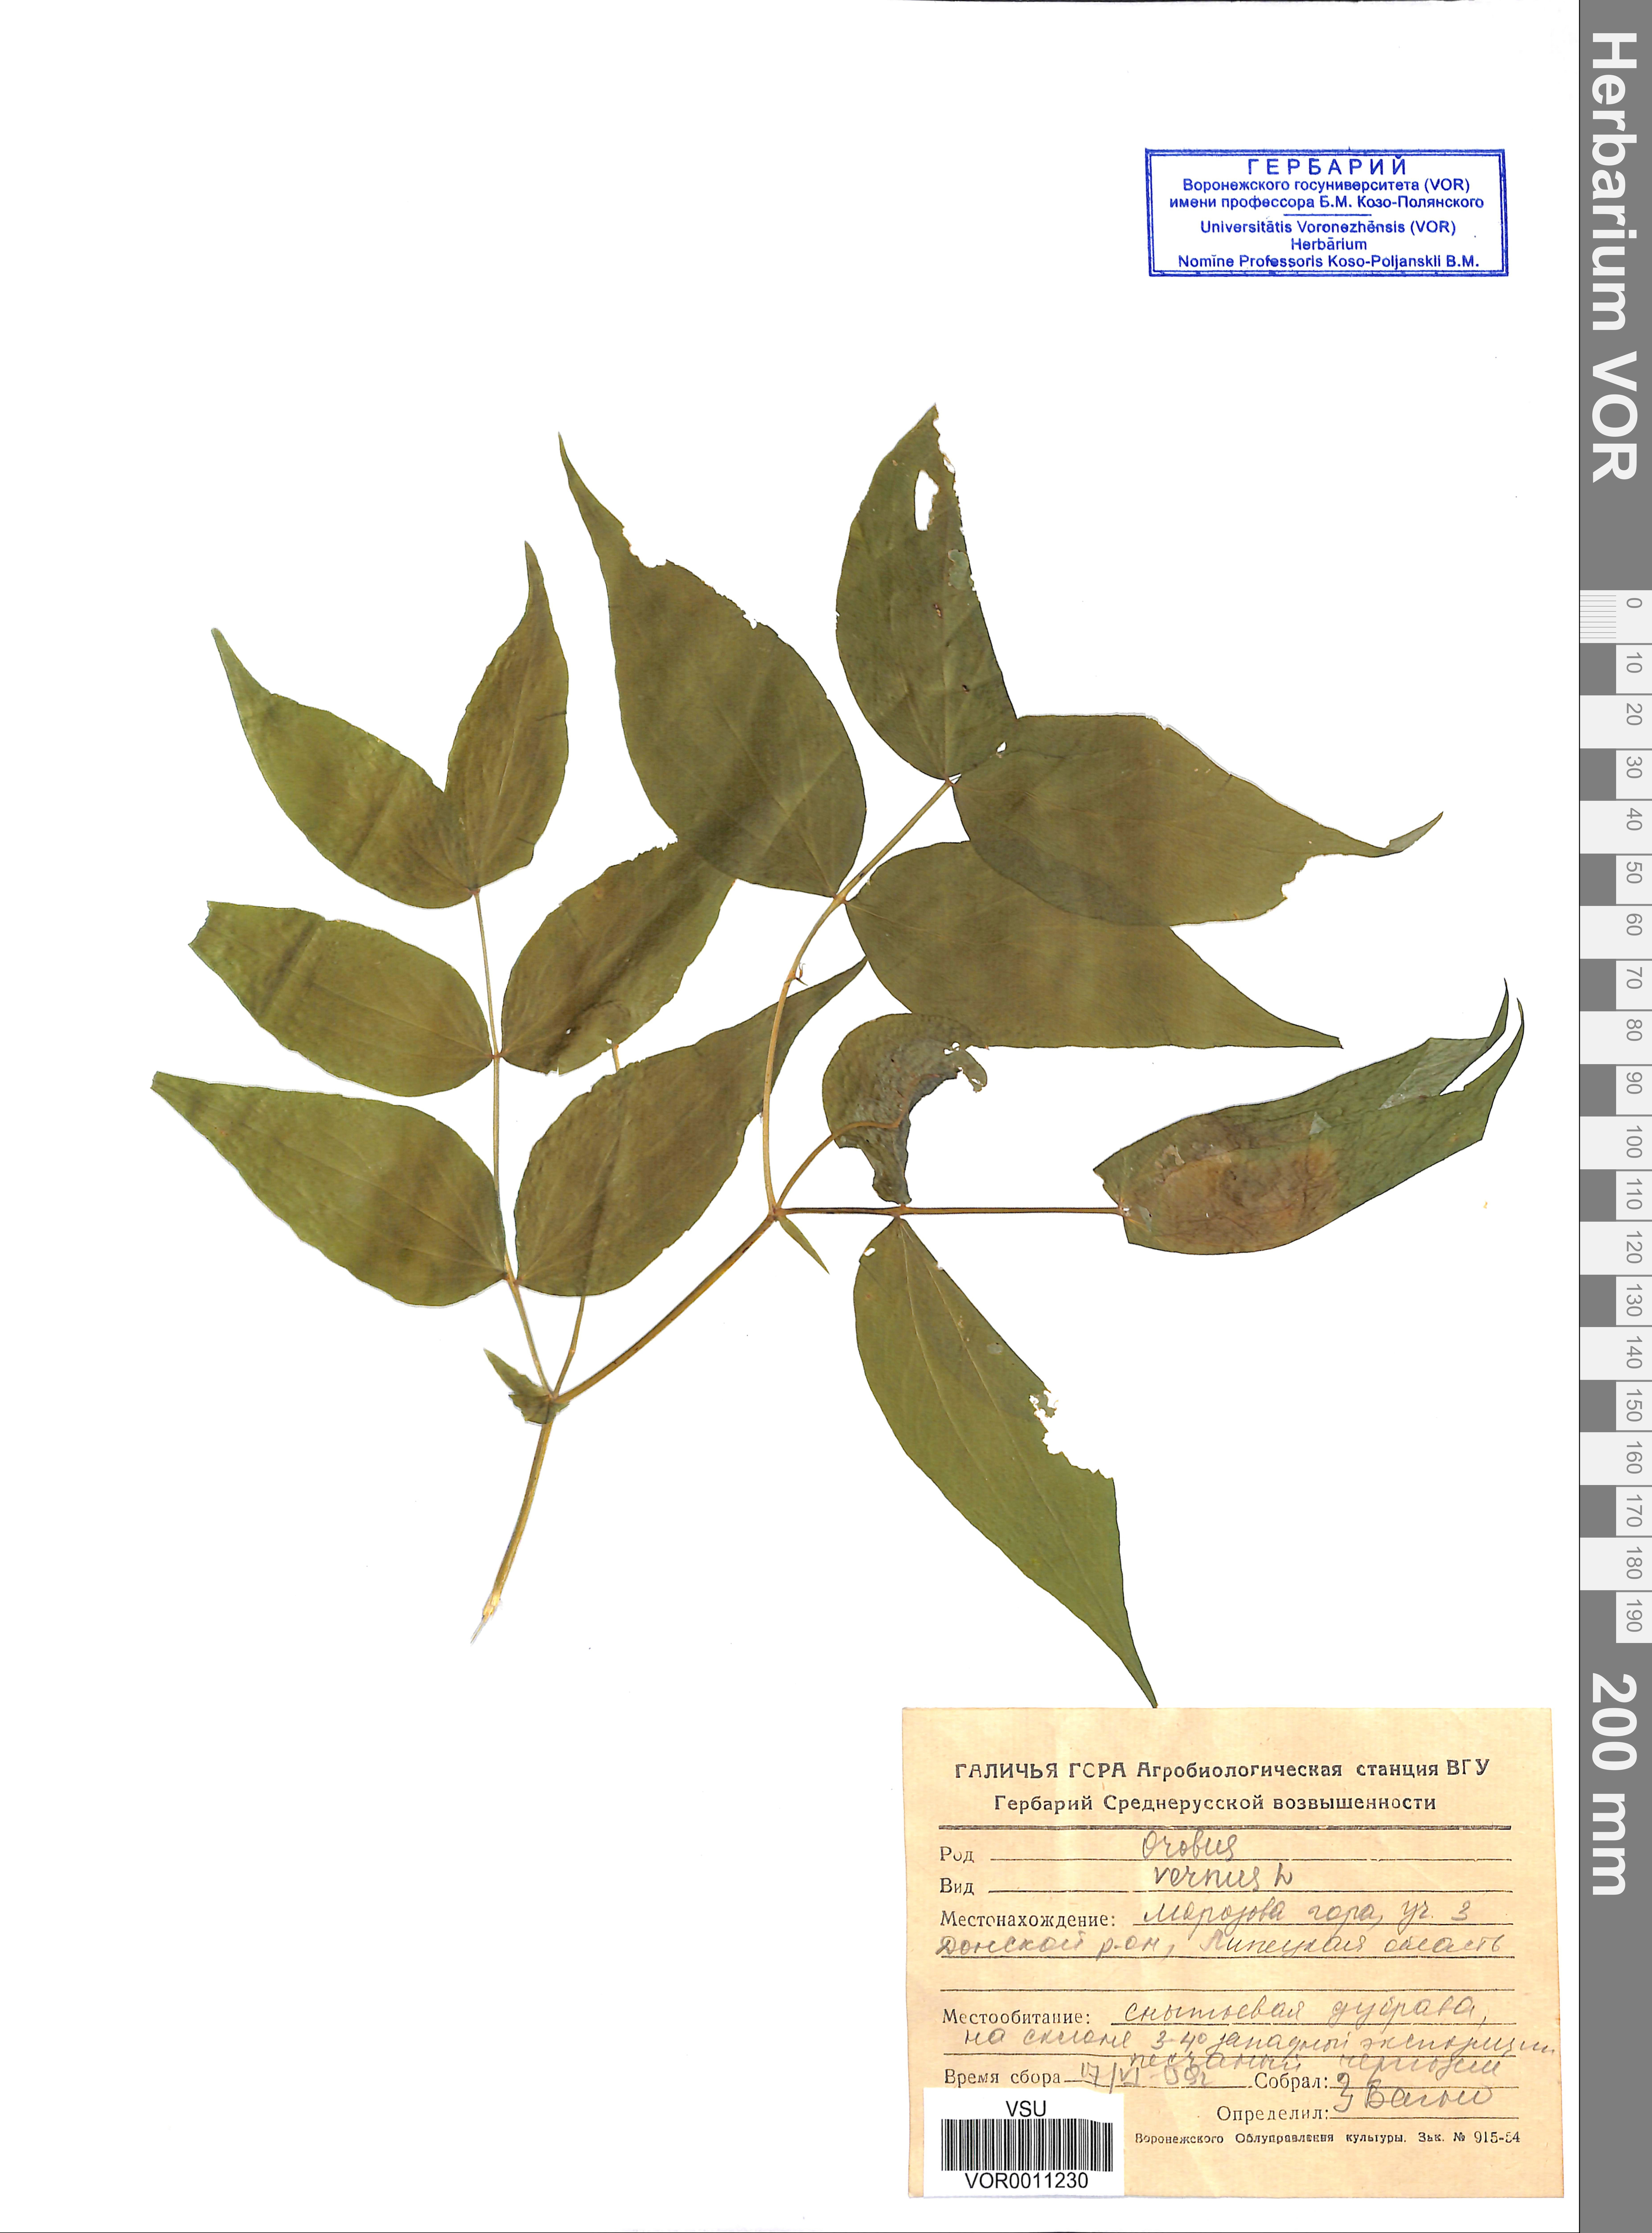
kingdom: Plantae
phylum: Tracheophyta
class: Magnoliopsida
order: Fabales
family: Fabaceae
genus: Lathyrus
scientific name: Lathyrus vernus
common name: Spring pea
